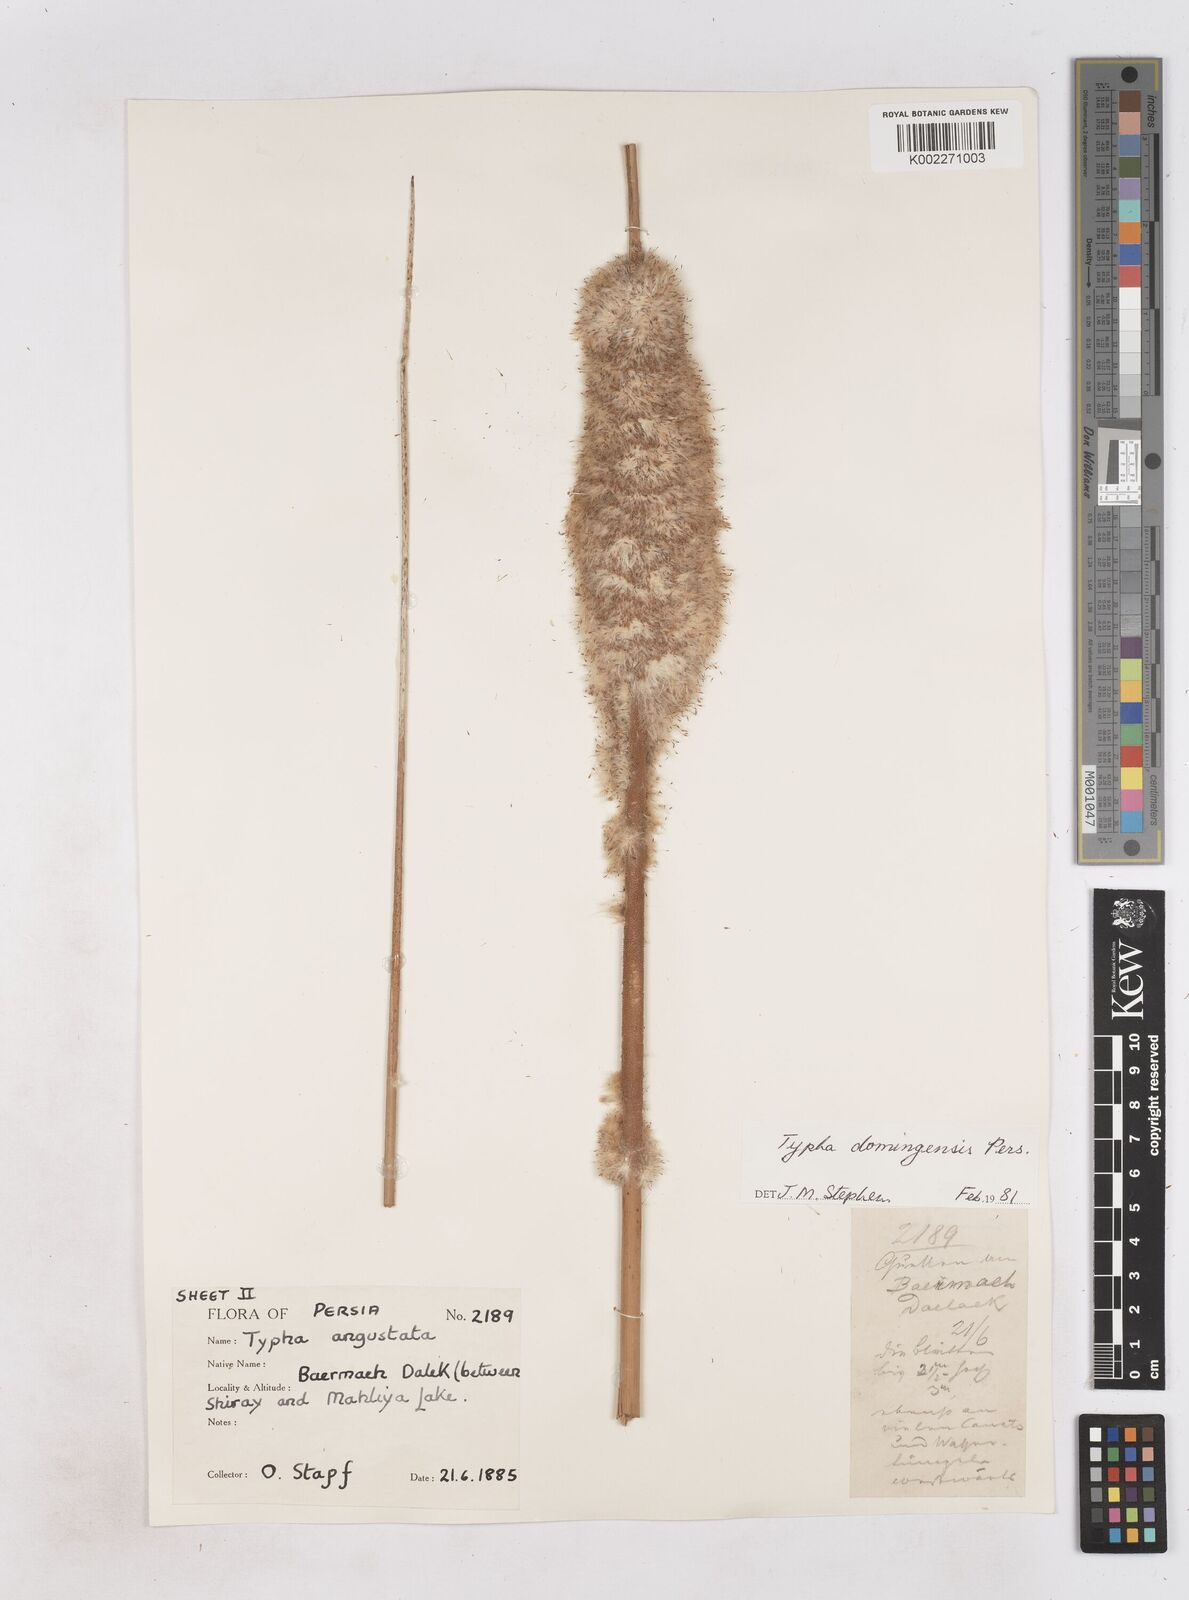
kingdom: Plantae
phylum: Tracheophyta
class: Liliopsida
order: Poales
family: Typhaceae
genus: Typha
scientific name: Typha domingensis
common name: Southern cattail
